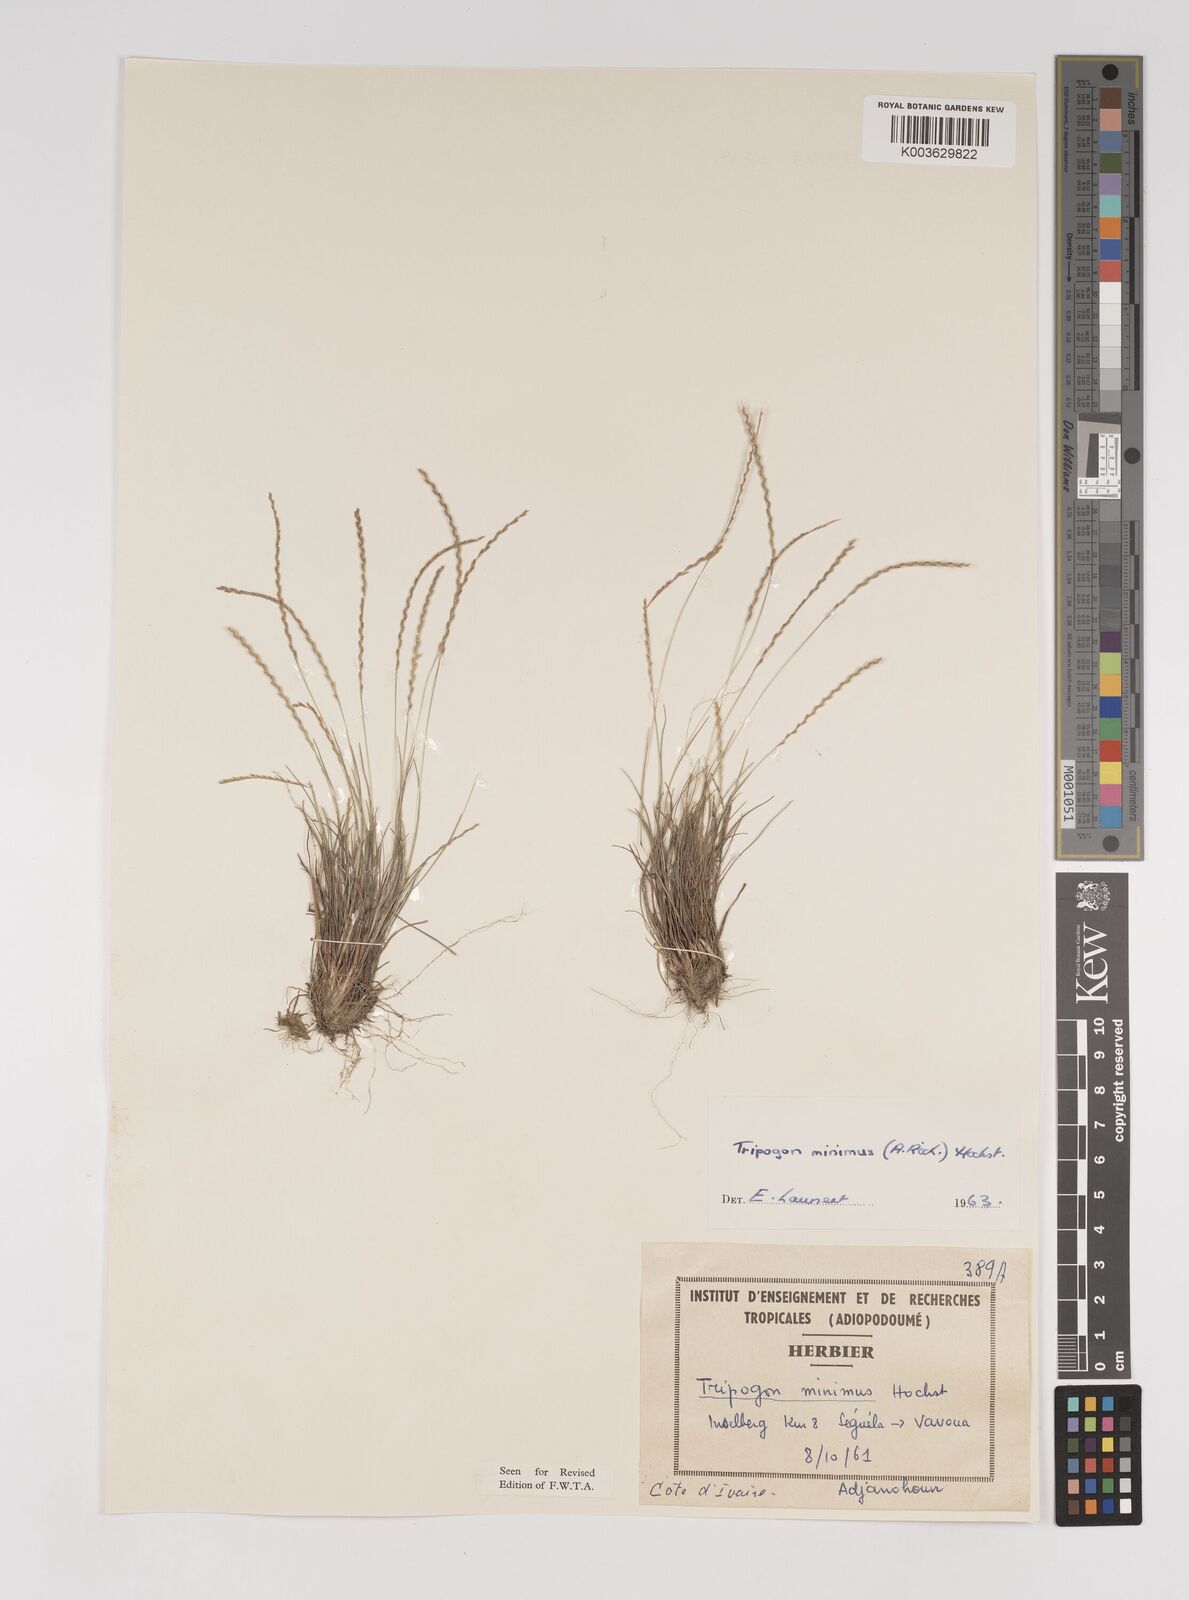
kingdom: Plantae
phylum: Tracheophyta
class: Liliopsida
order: Poales
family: Poaceae
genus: Tripogonella
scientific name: Tripogonella minima
